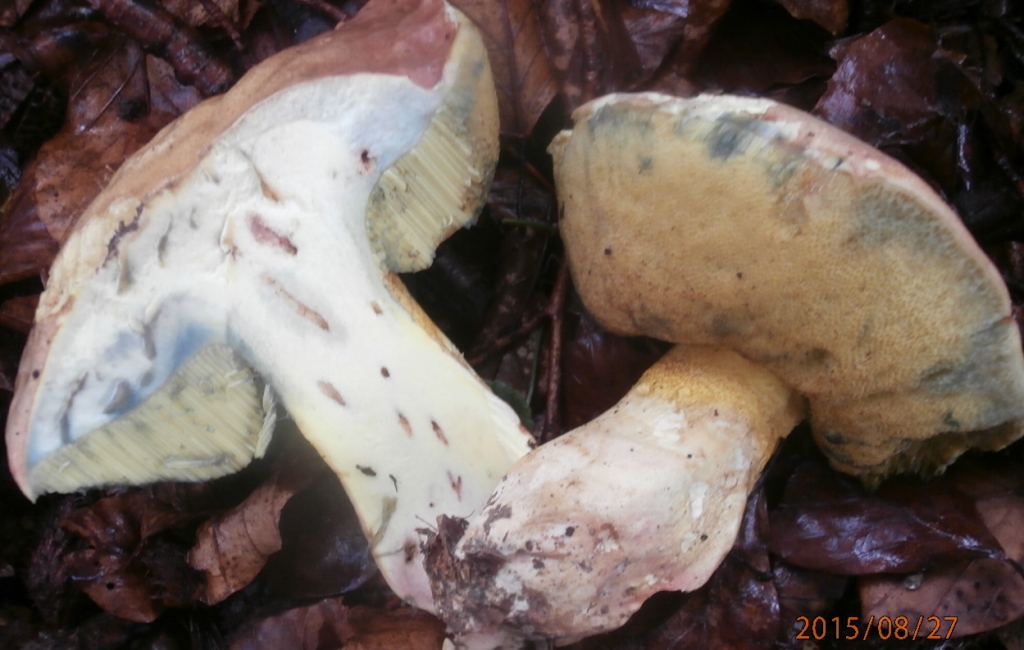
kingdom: Fungi
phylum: Basidiomycota
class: Agaricomycetes
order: Boletales
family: Boletaceae
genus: Butyriboletus
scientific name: Butyriboletus appendiculatus
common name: tenstokket rørhat
